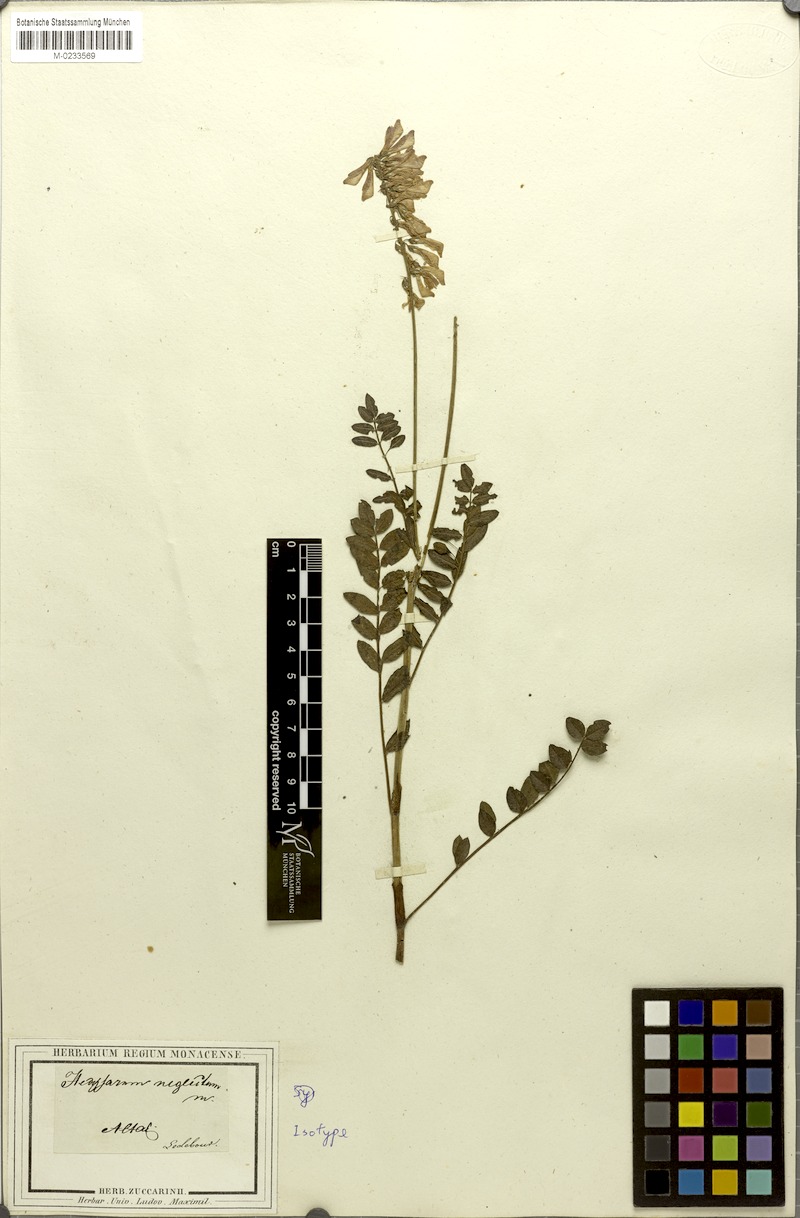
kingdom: Plantae
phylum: Tracheophyta
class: Magnoliopsida
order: Fabales
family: Fabaceae
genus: Hedysarum
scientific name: Hedysarum neglectum
